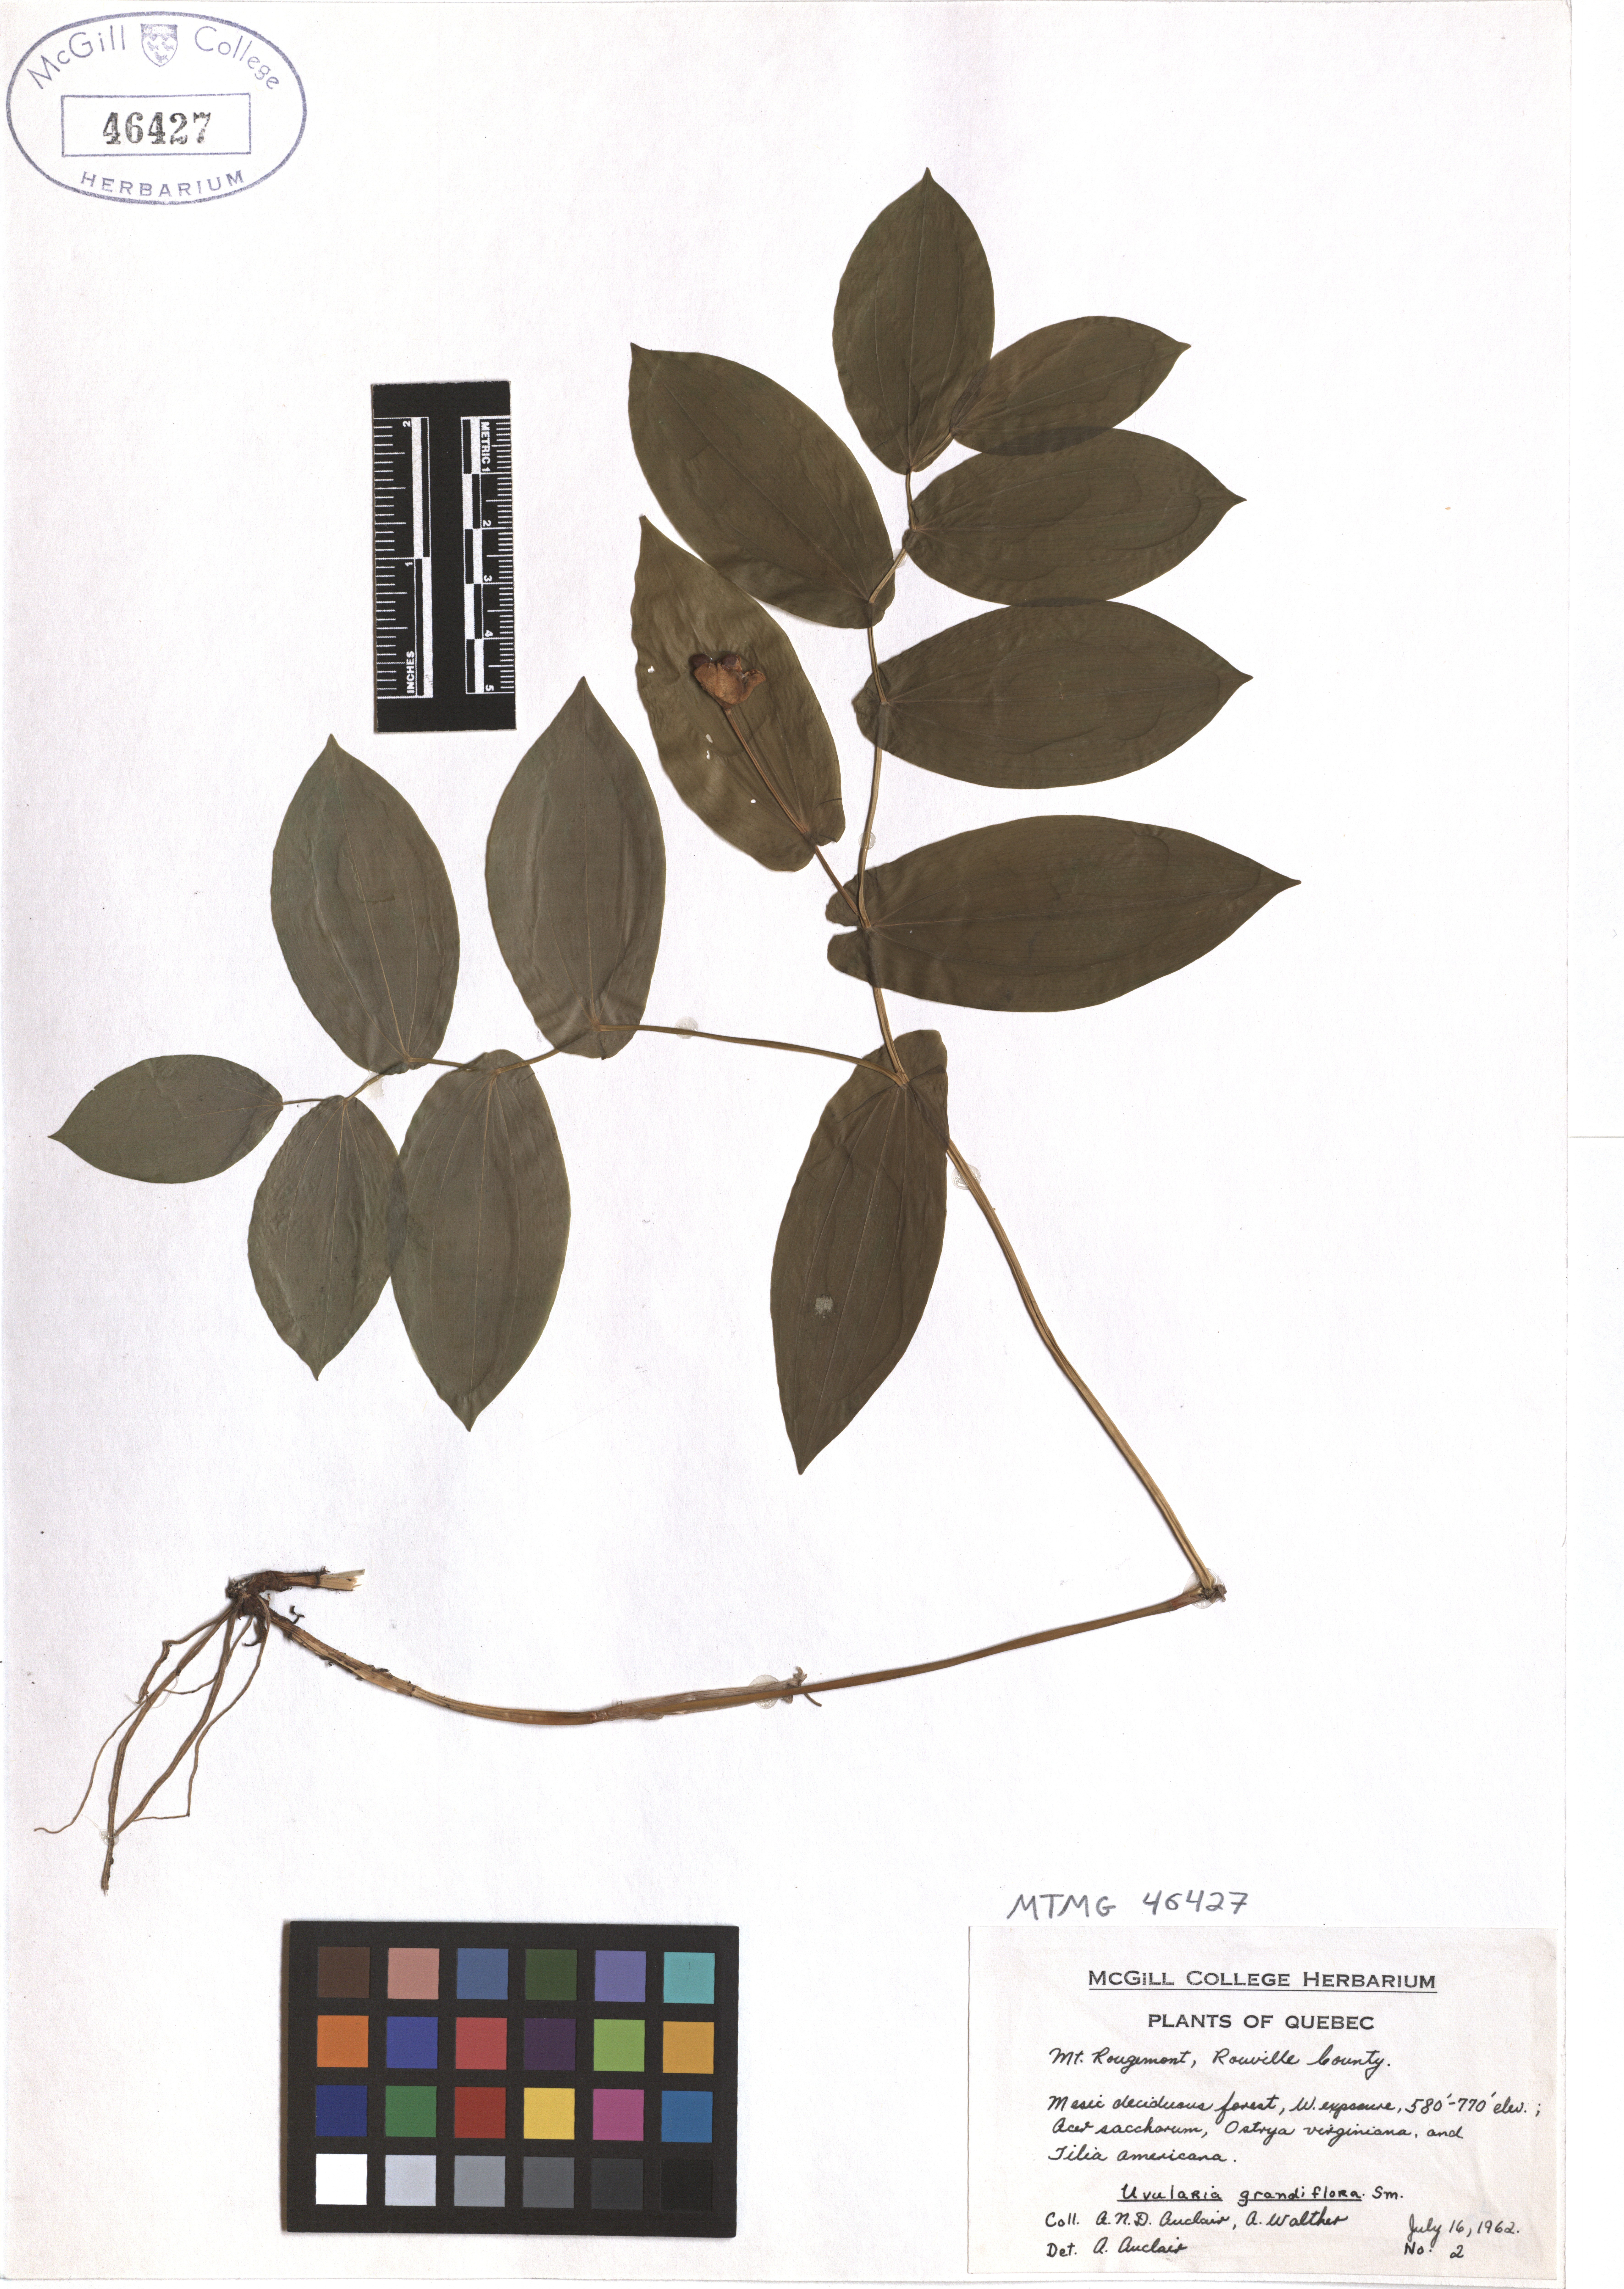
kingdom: Plantae
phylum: Tracheophyta
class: Liliopsida
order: Liliales
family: Colchicaceae
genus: Uvularia
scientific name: Uvularia grandiflora
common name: Bellwort
